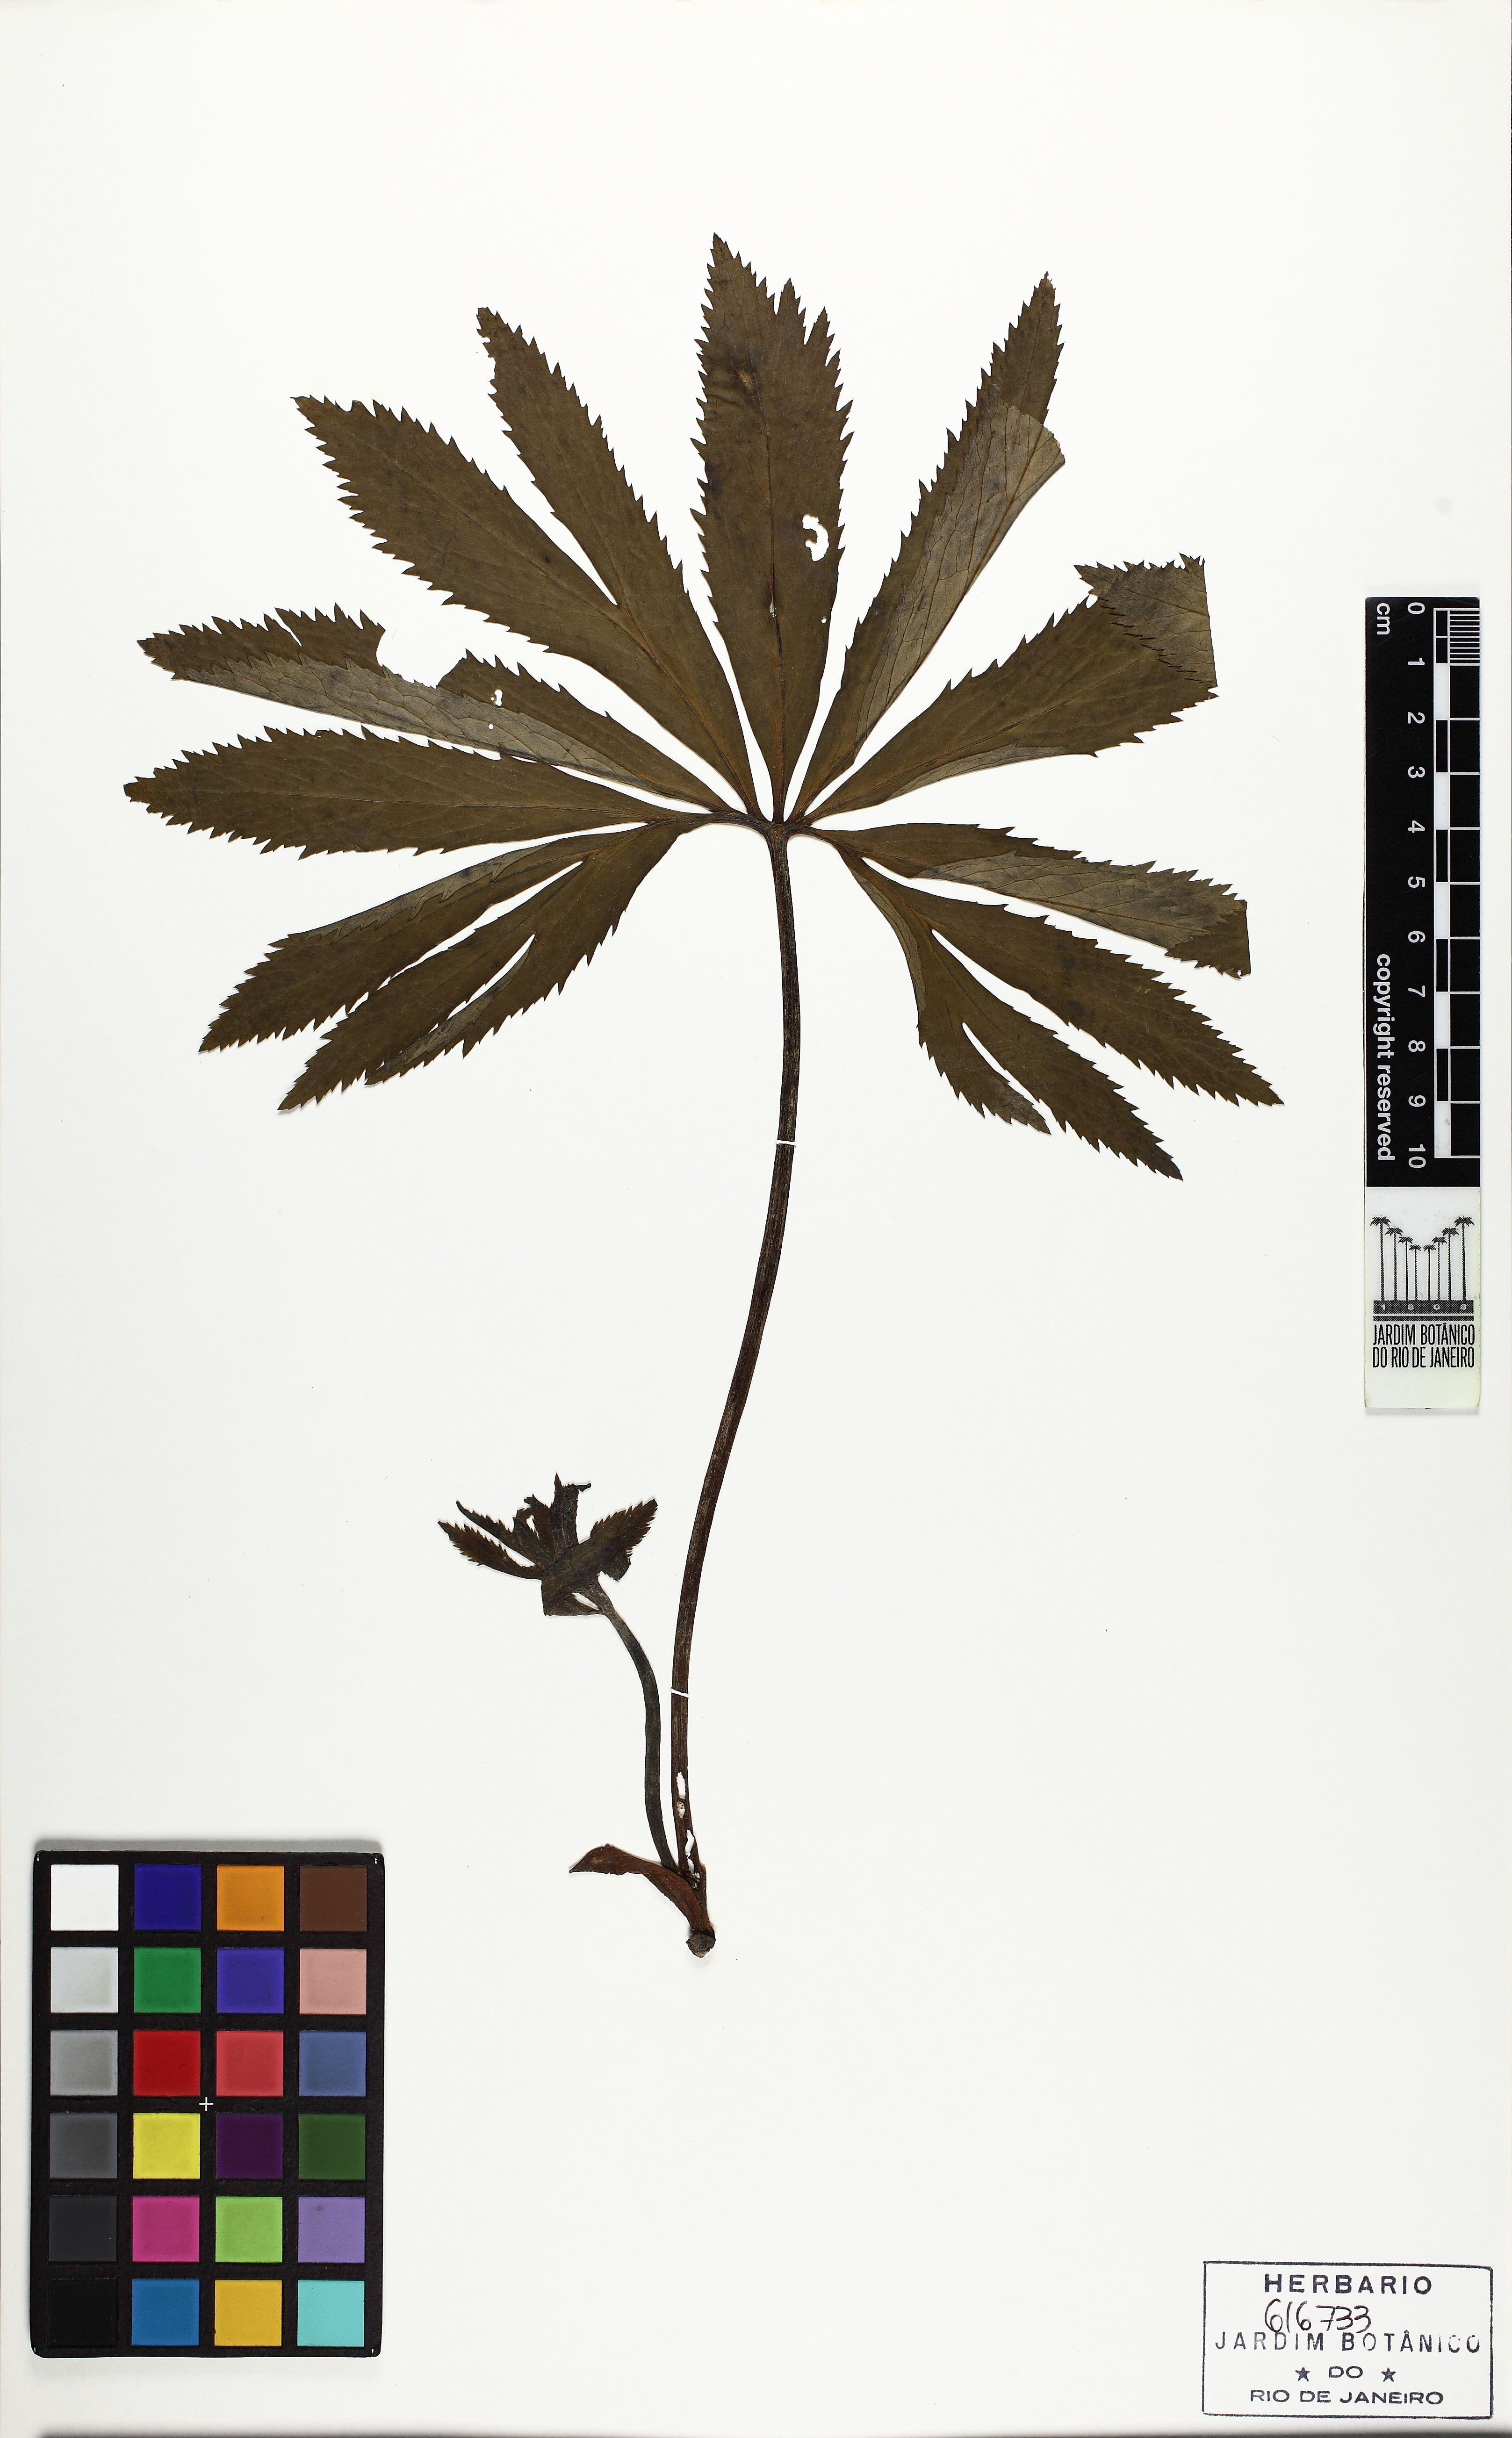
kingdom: Plantae
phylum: Tracheophyta
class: Magnoliopsida
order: Ranunculales
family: Ranunculaceae
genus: Helleborus
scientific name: Helleborus viridis
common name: Green hellebore
